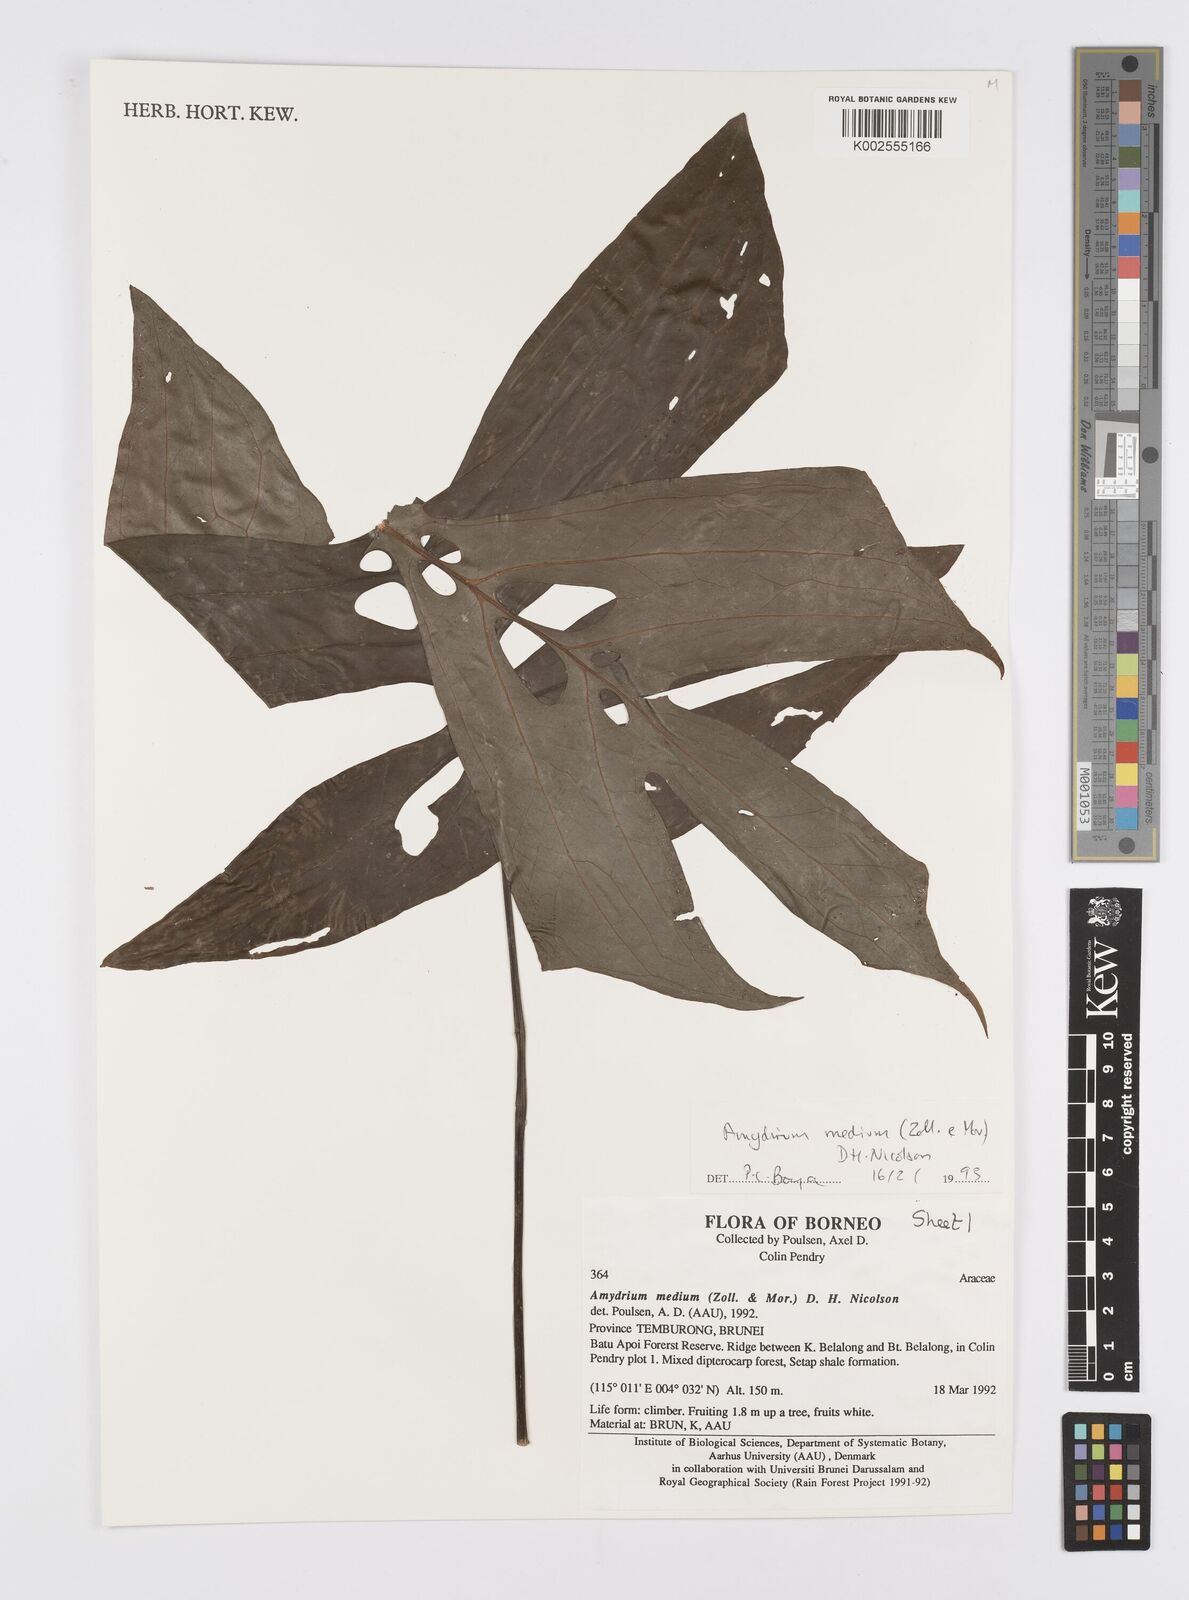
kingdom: Plantae
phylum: Tracheophyta
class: Liliopsida
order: Alismatales
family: Araceae
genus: Amydrium
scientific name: Amydrium medium
